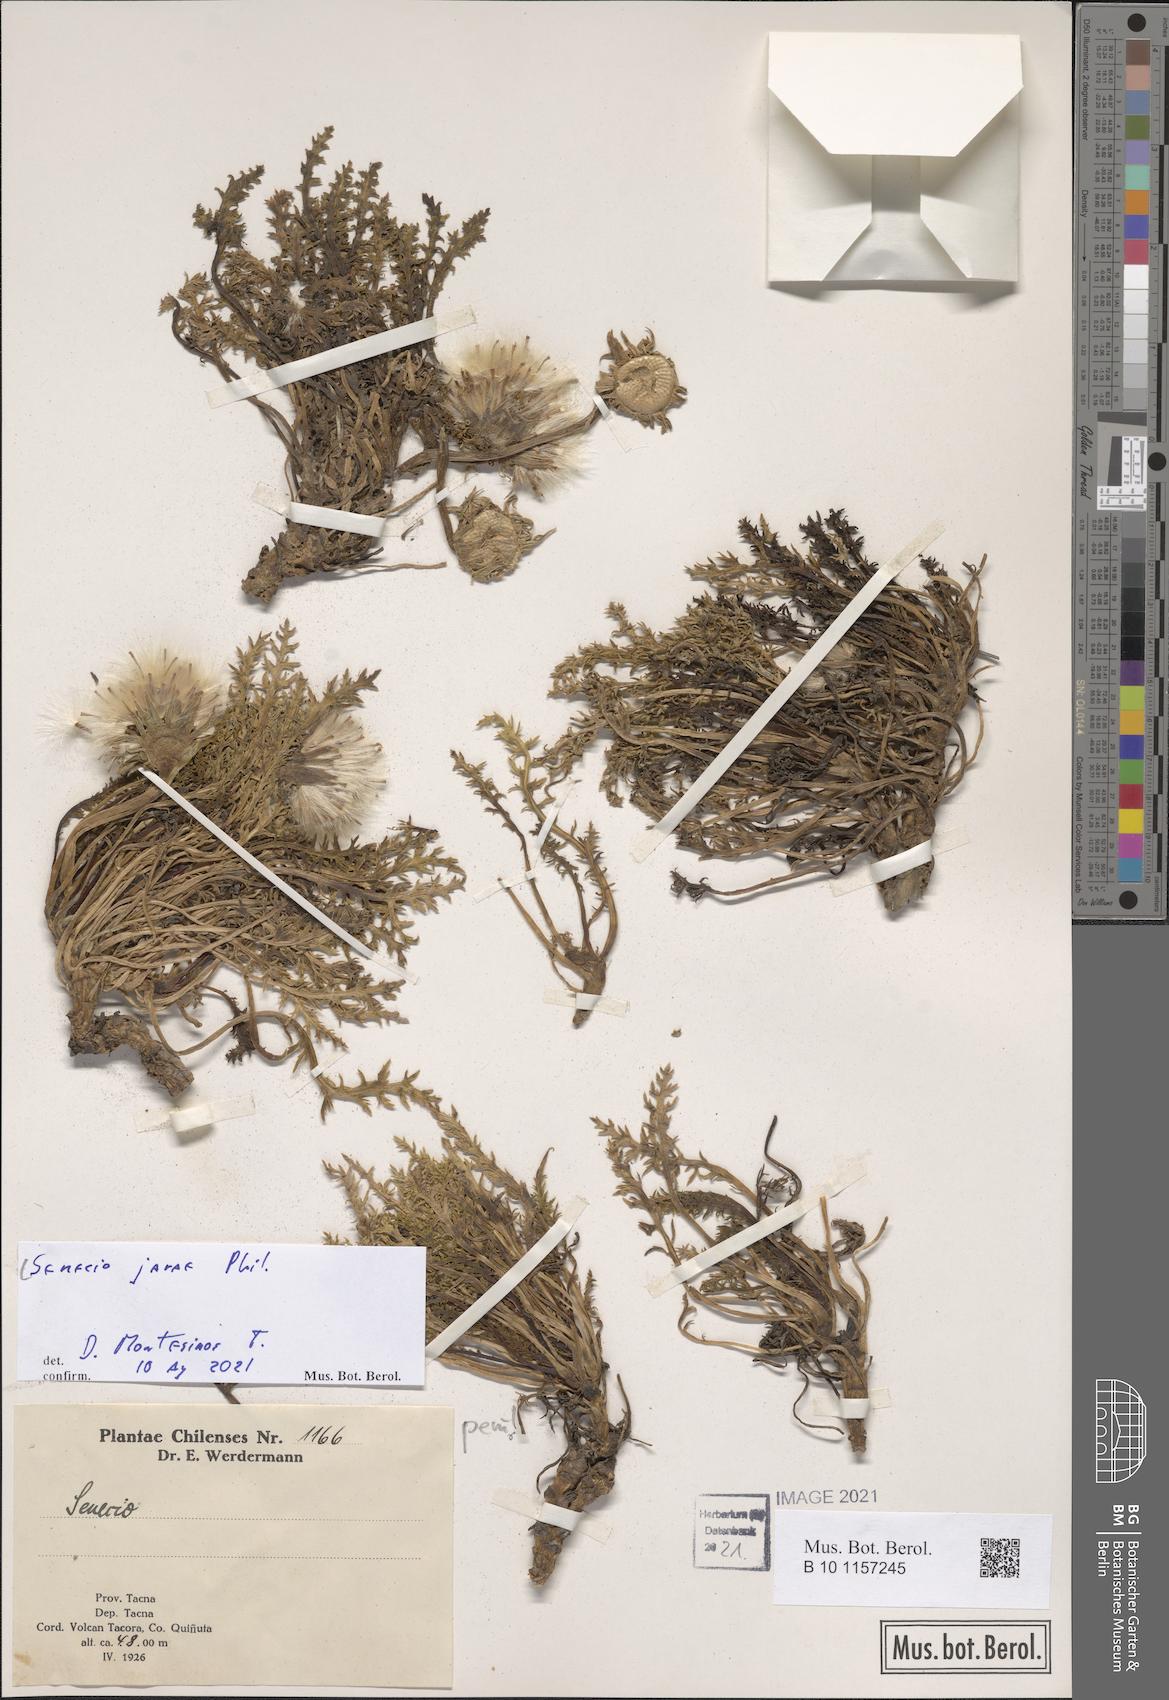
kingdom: Plantae
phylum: Tracheophyta
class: Magnoliopsida
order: Asterales
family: Asteraceae
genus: Senecio
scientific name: Senecio jarae
